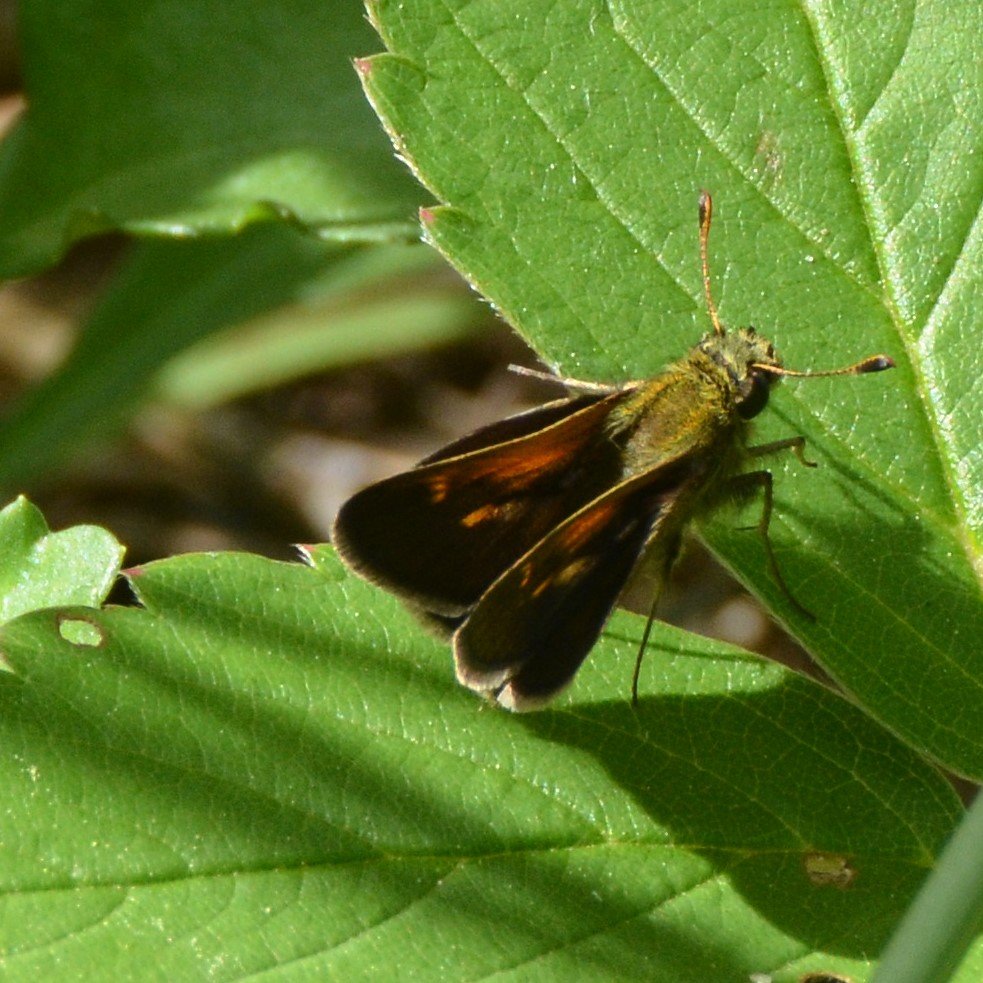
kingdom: Animalia
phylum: Arthropoda
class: Insecta
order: Lepidoptera
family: Hesperiidae
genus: Polites
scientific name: Polites themistocles
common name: Tawny-edged Skipper
